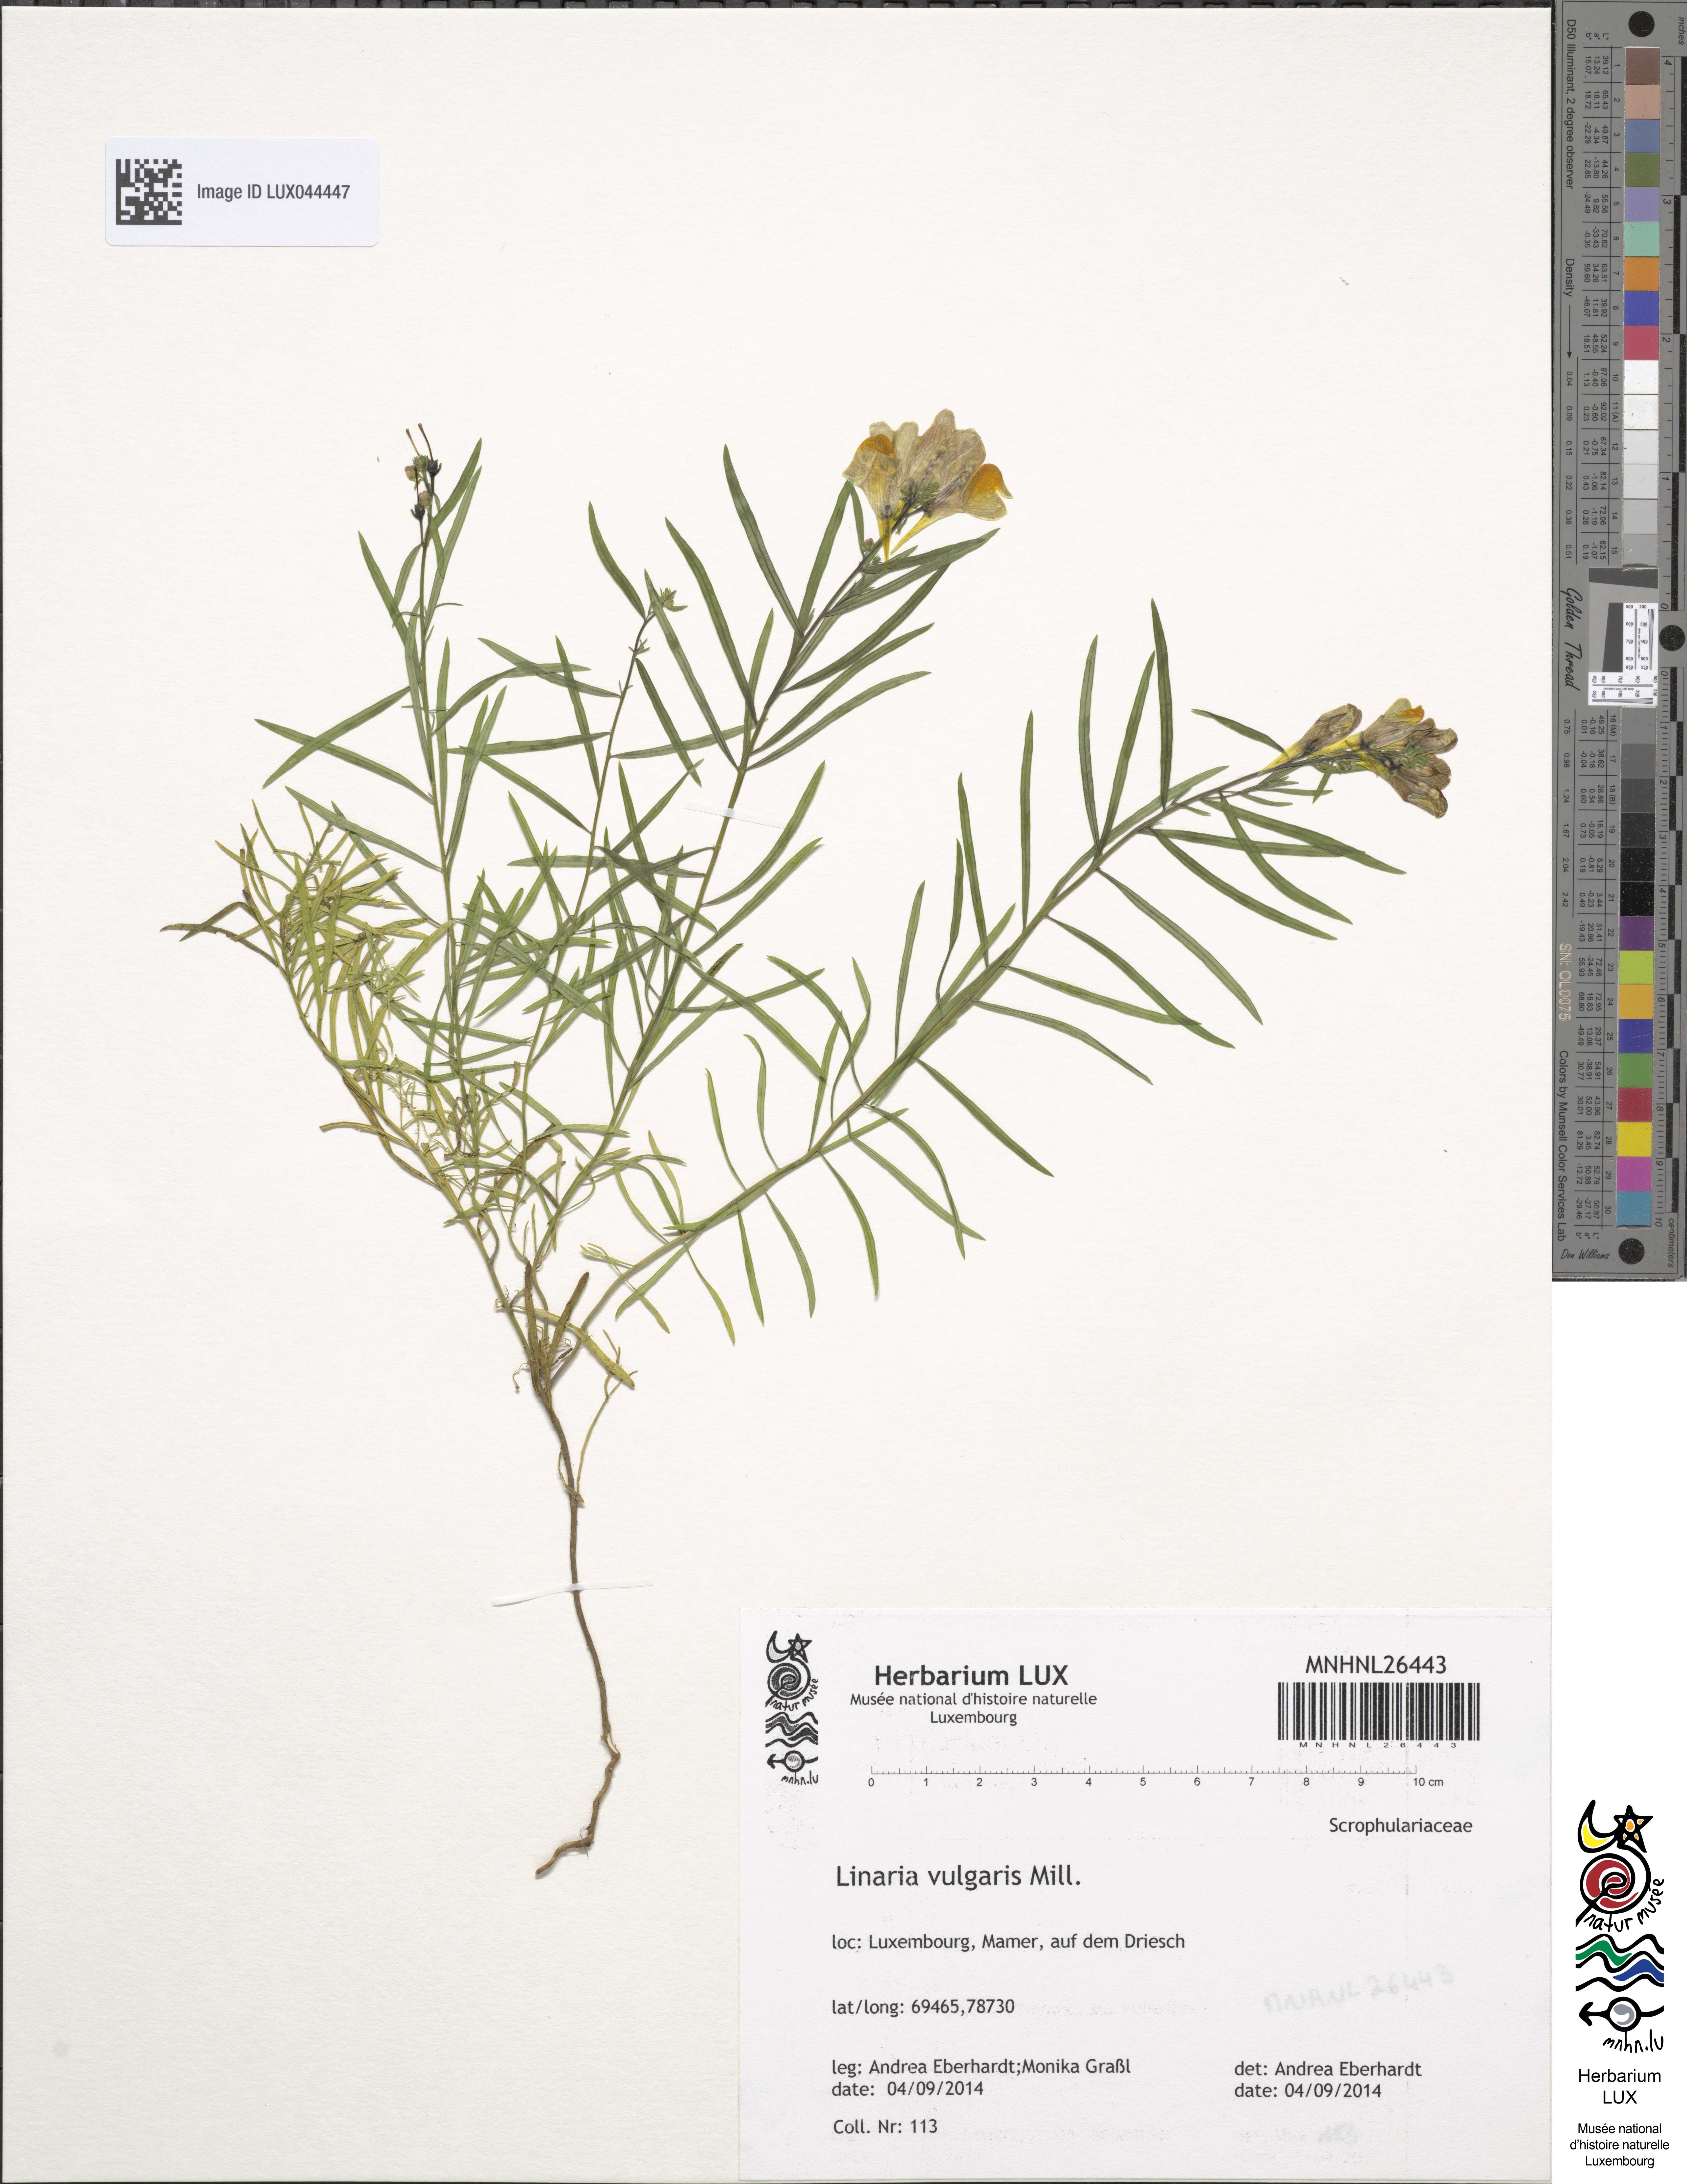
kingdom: Plantae
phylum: Tracheophyta
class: Magnoliopsida
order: Lamiales
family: Plantaginaceae
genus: Linaria
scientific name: Linaria vulgaris
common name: Butter and eggs
